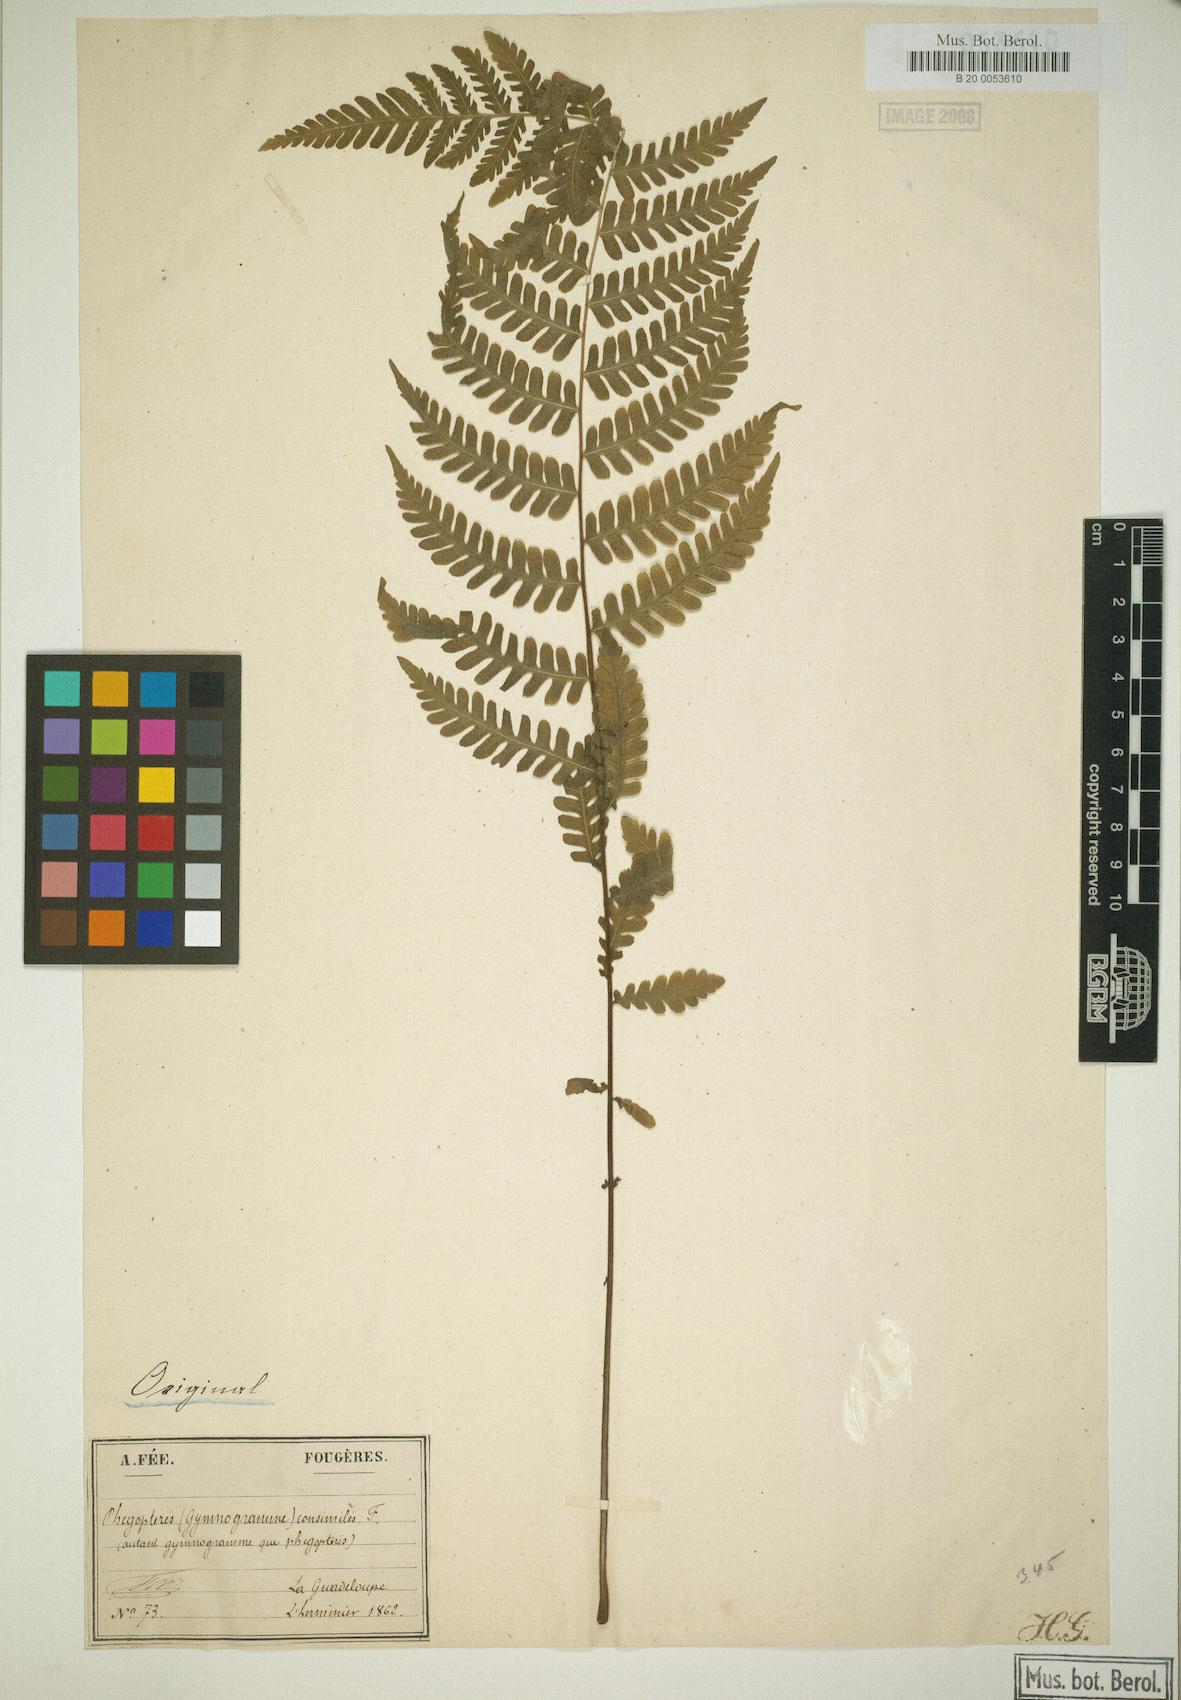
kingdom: Plantae
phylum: Tracheophyta
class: Polypodiopsida
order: Polypodiales
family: Thelypteridaceae
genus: Amauropelta
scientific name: Amauropelta gracilis
